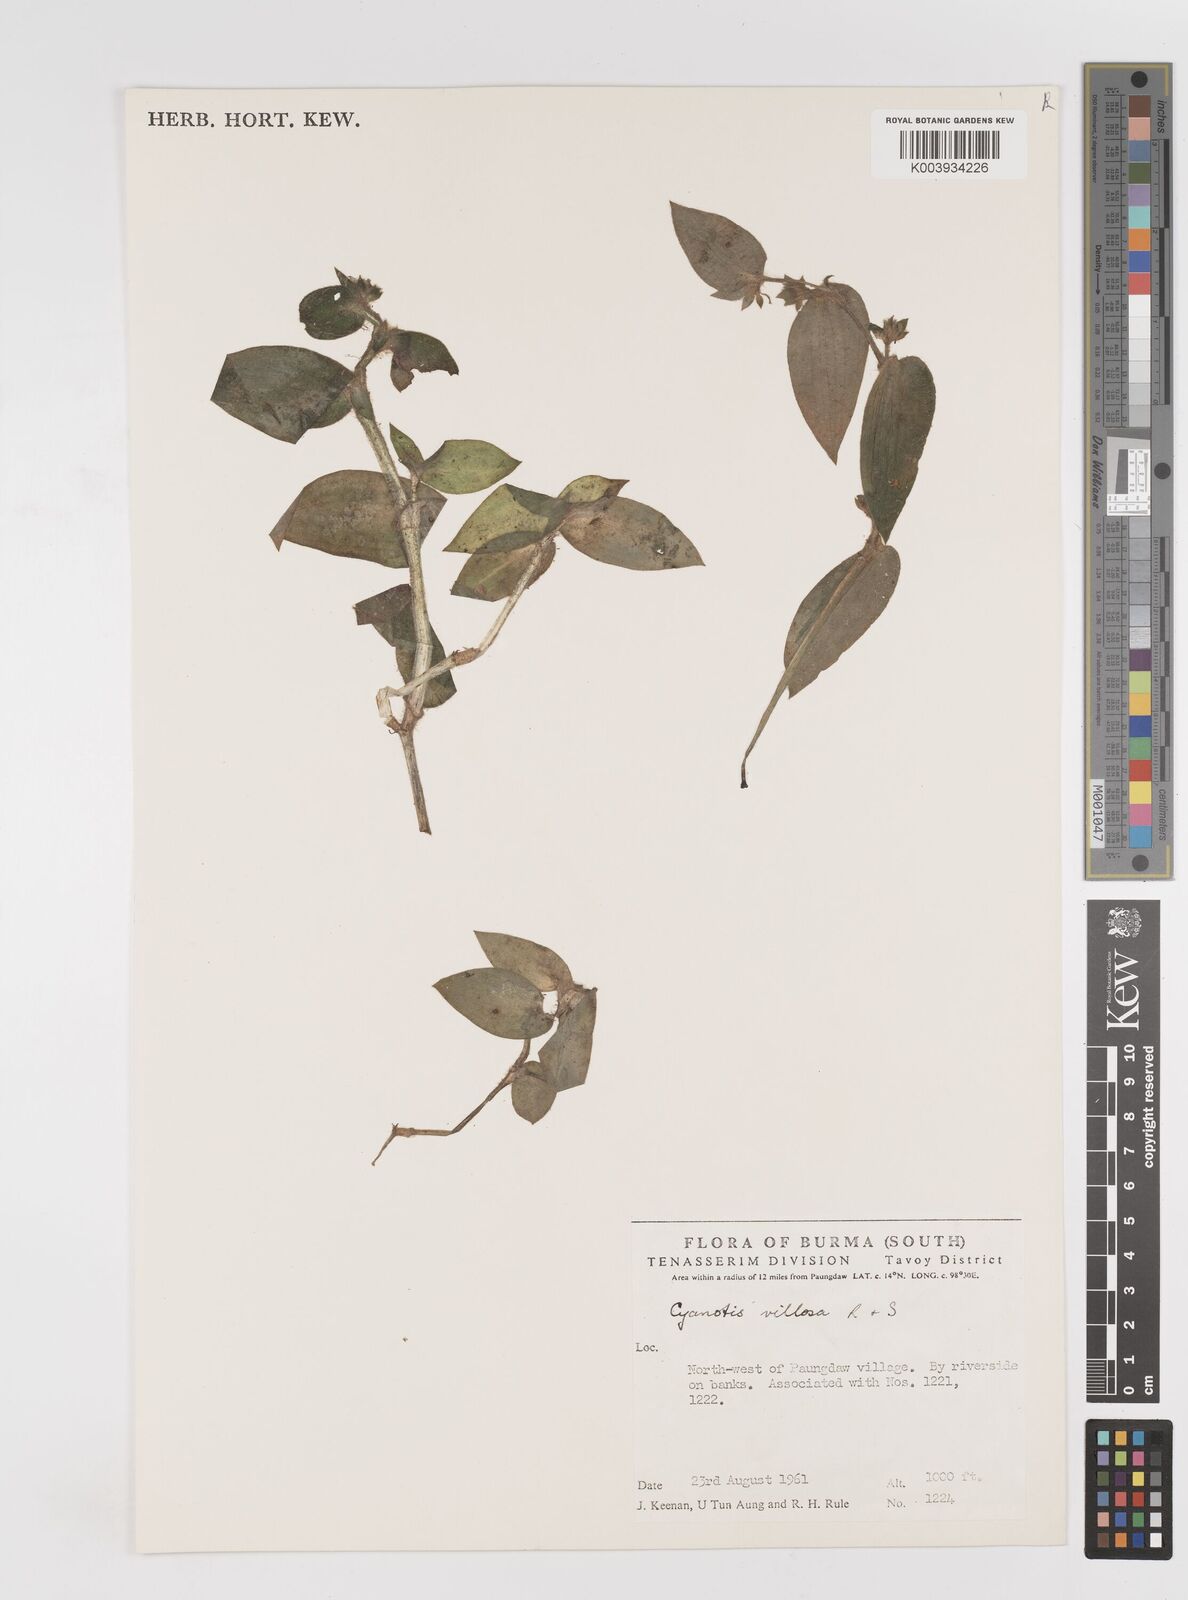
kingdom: Plantae
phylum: Tracheophyta
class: Liliopsida
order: Commelinales
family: Commelinaceae
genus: Cyanotis
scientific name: Cyanotis
